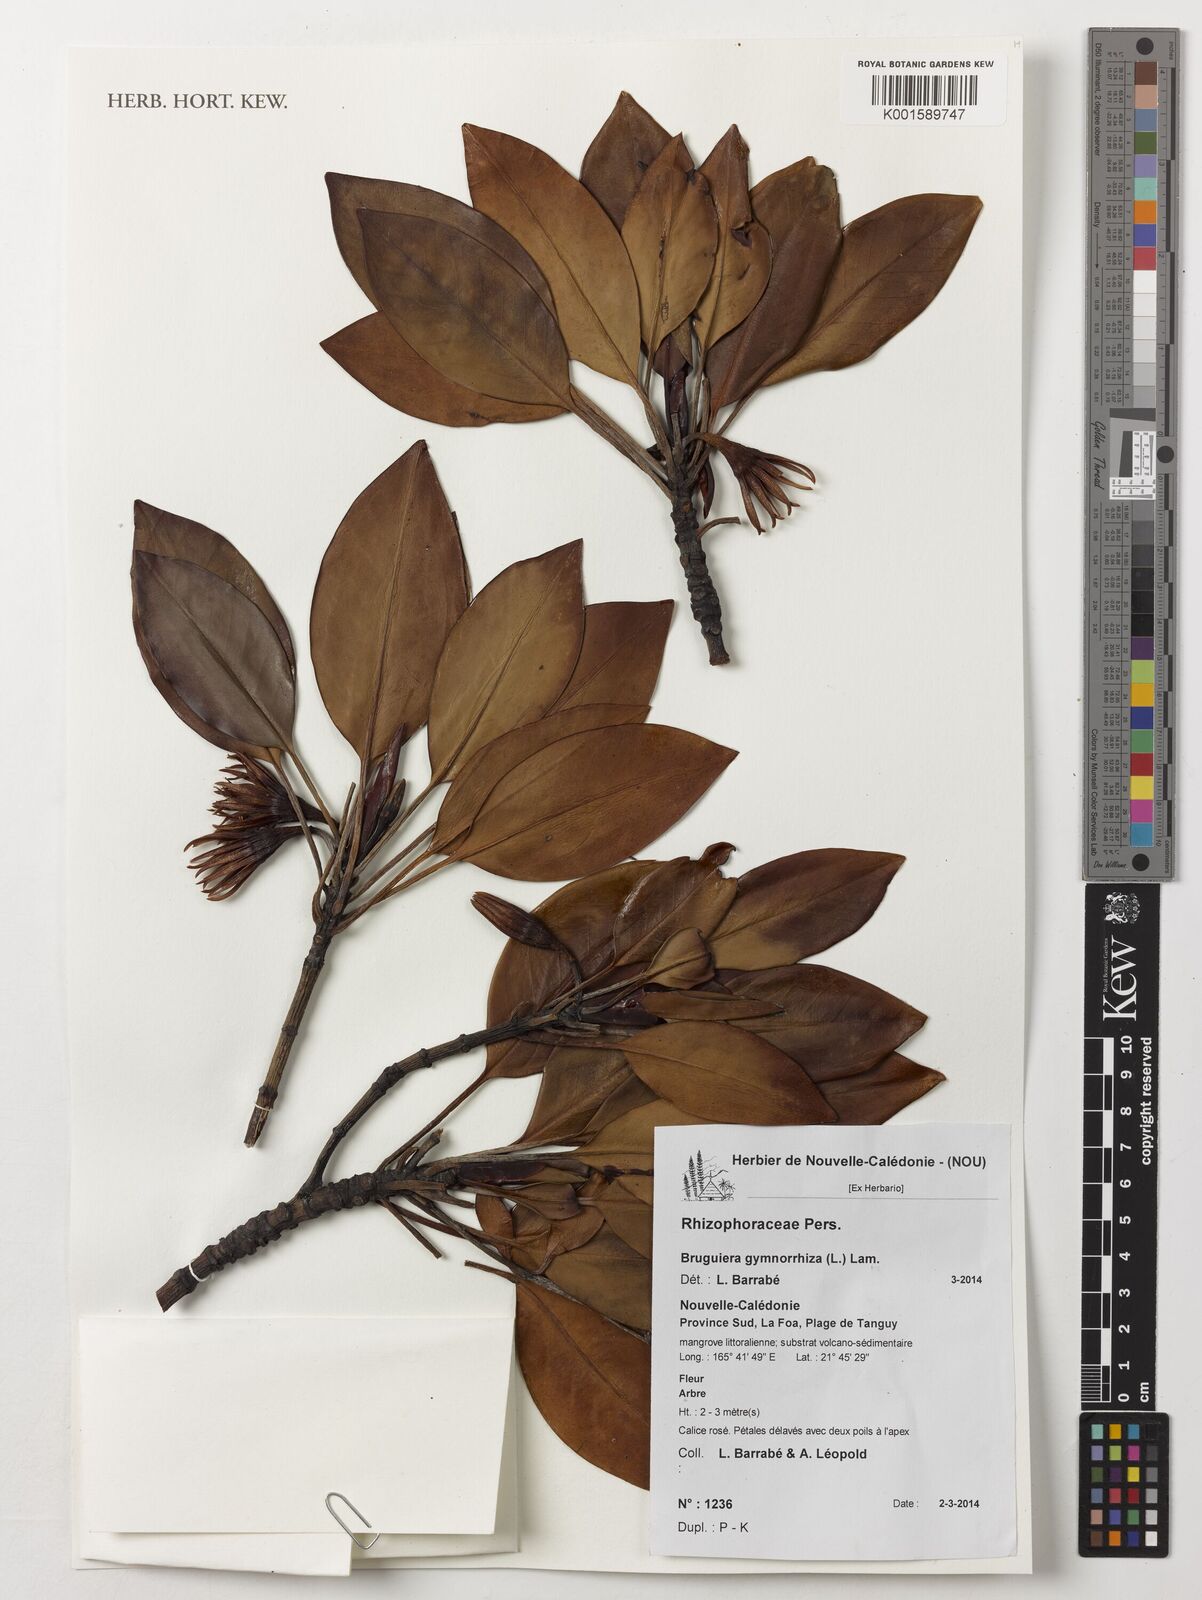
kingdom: Plantae
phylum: Tracheophyta
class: Magnoliopsida
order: Malpighiales
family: Rhizophoraceae
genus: Bruguiera
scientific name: Bruguiera gymnorhiza
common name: Oriental mangrove
